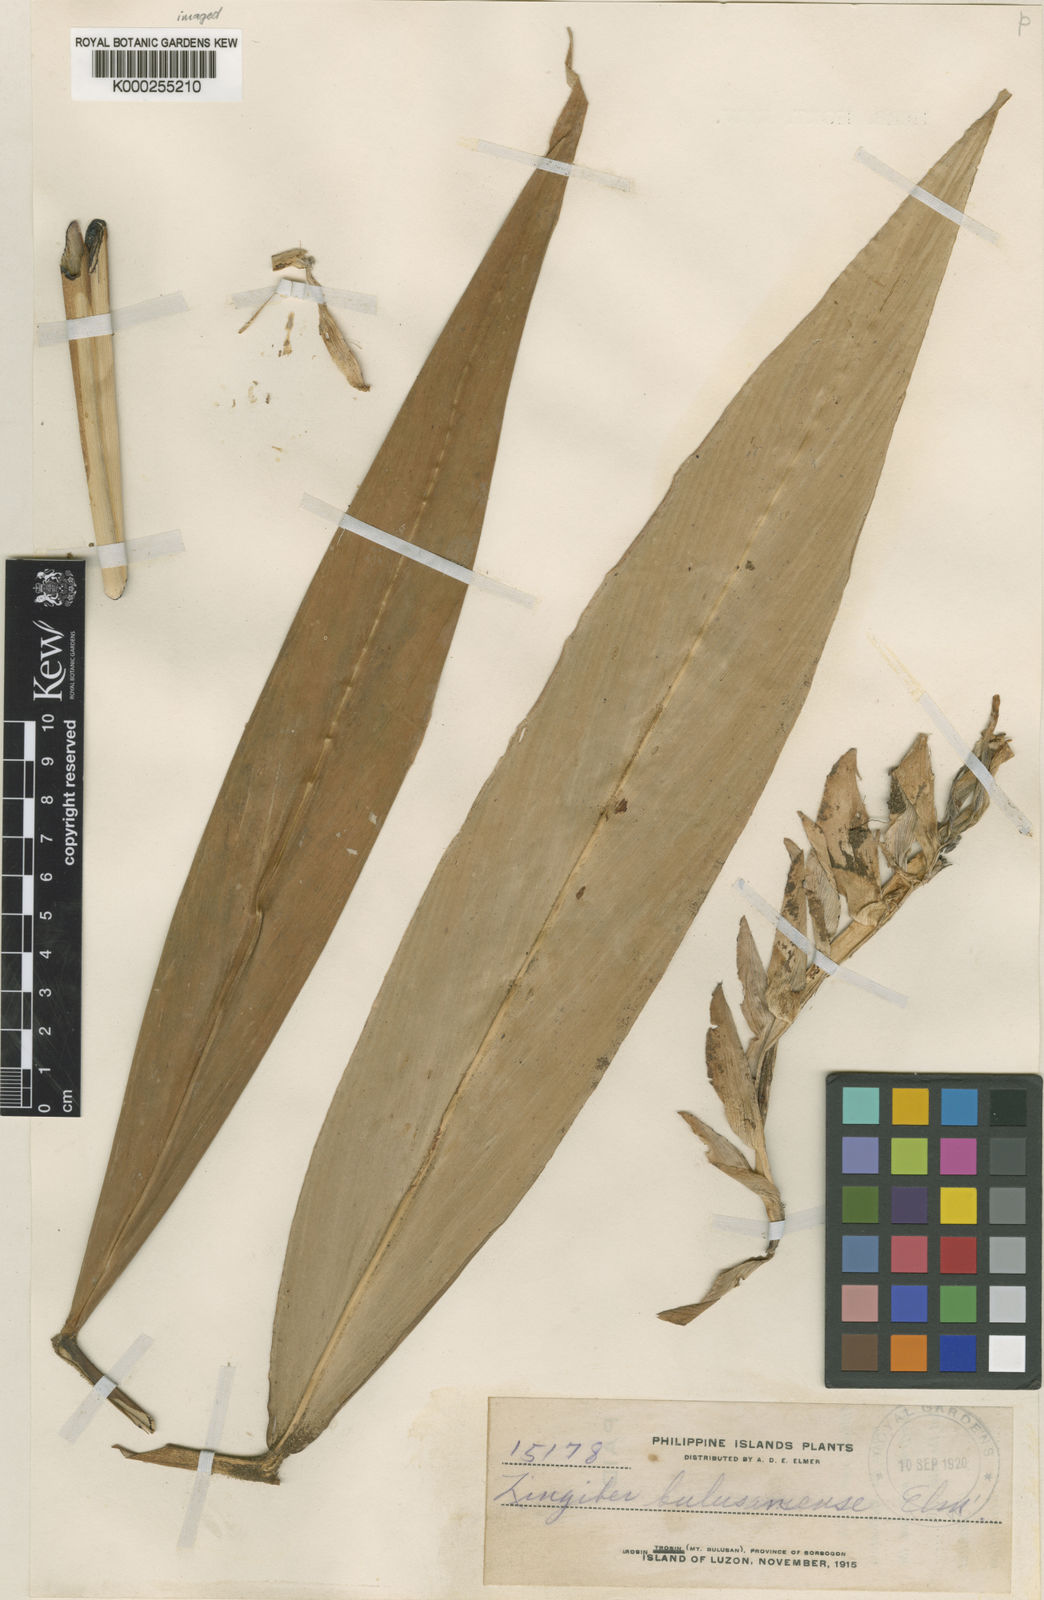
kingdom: Plantae
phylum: Tracheophyta
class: Liliopsida
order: Zingiberales
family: Zingiberaceae
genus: Zingiber
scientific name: Zingiber bulusanense
